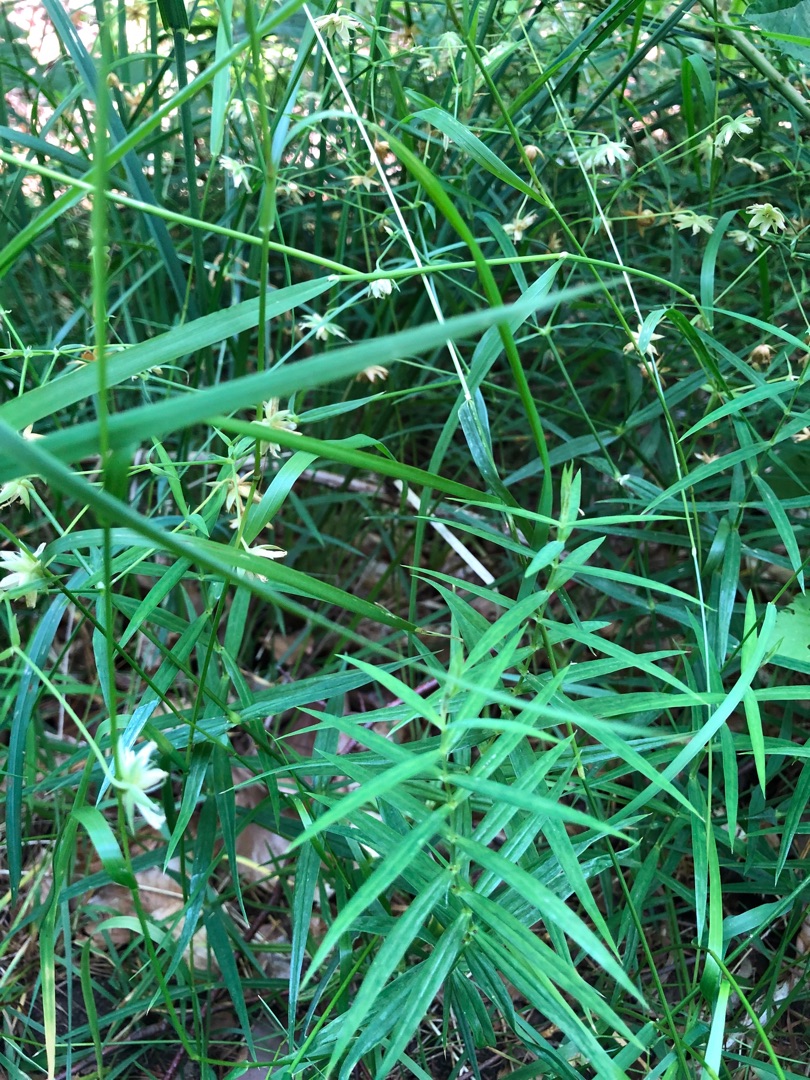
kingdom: Plantae
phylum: Tracheophyta
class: Magnoliopsida
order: Caryophyllales
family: Caryophyllaceae
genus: Rabelera
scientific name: Rabelera holostea
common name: Stor fladstjerne
